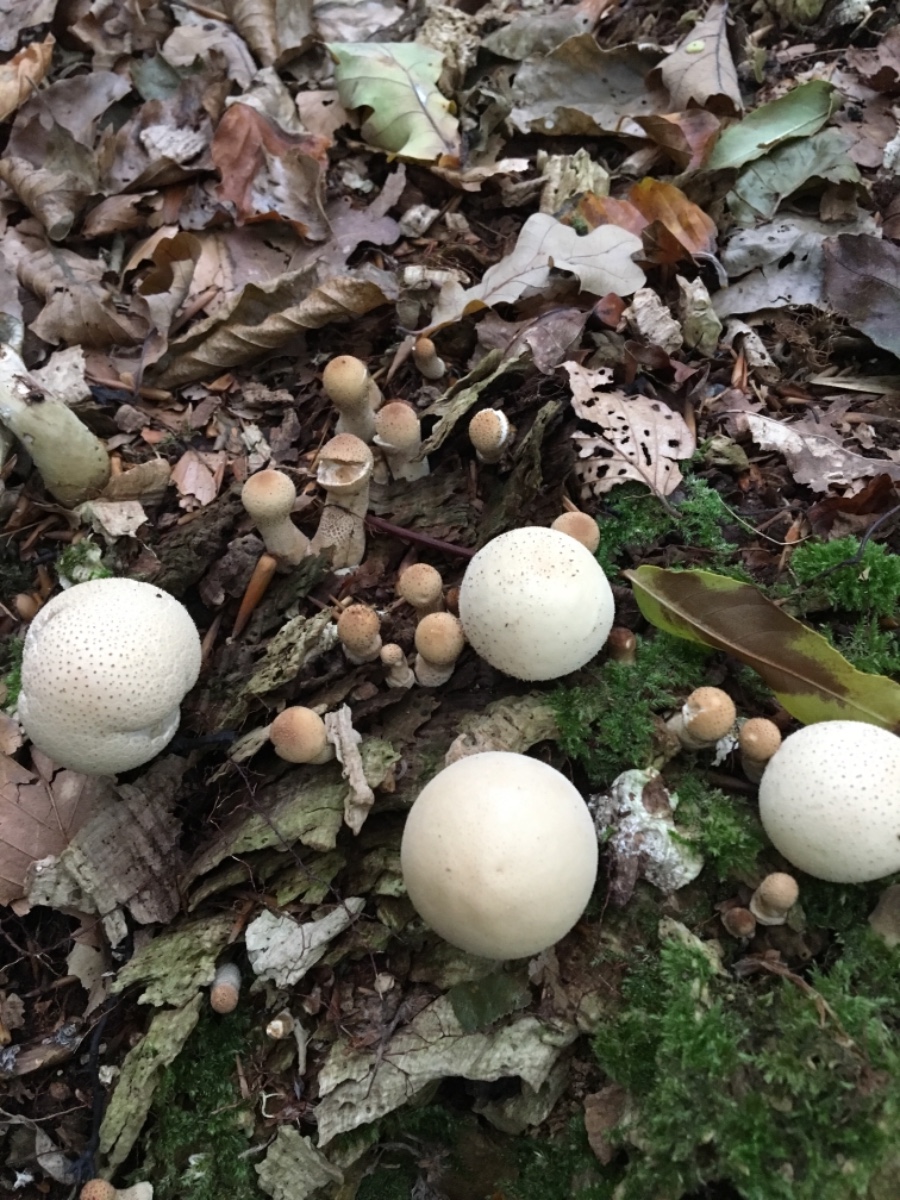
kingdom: Fungi
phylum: Basidiomycota
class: Agaricomycetes
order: Agaricales
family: Lycoperdaceae
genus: Apioperdon
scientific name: Apioperdon pyriforme
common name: pære-støvbold
